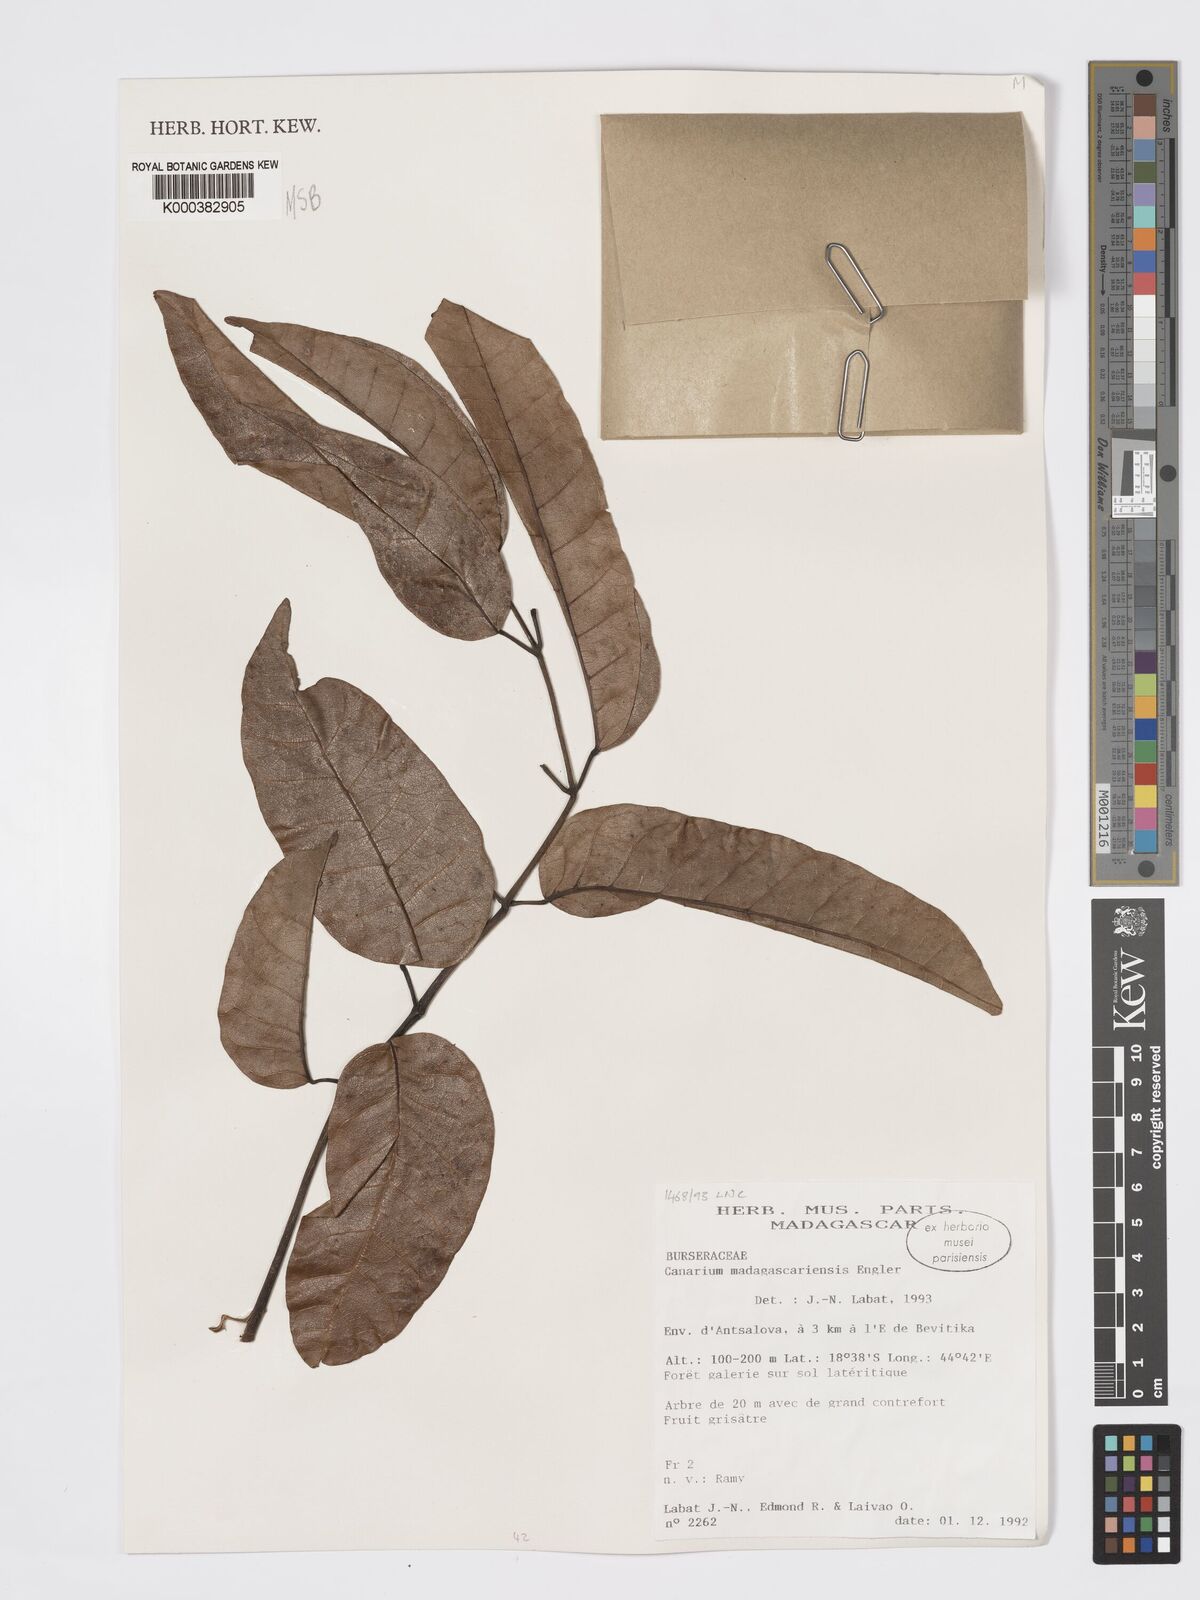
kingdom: Plantae
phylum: Tracheophyta
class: Magnoliopsida
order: Sapindales
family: Burseraceae
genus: Canarium
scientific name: Canarium madagascariense
